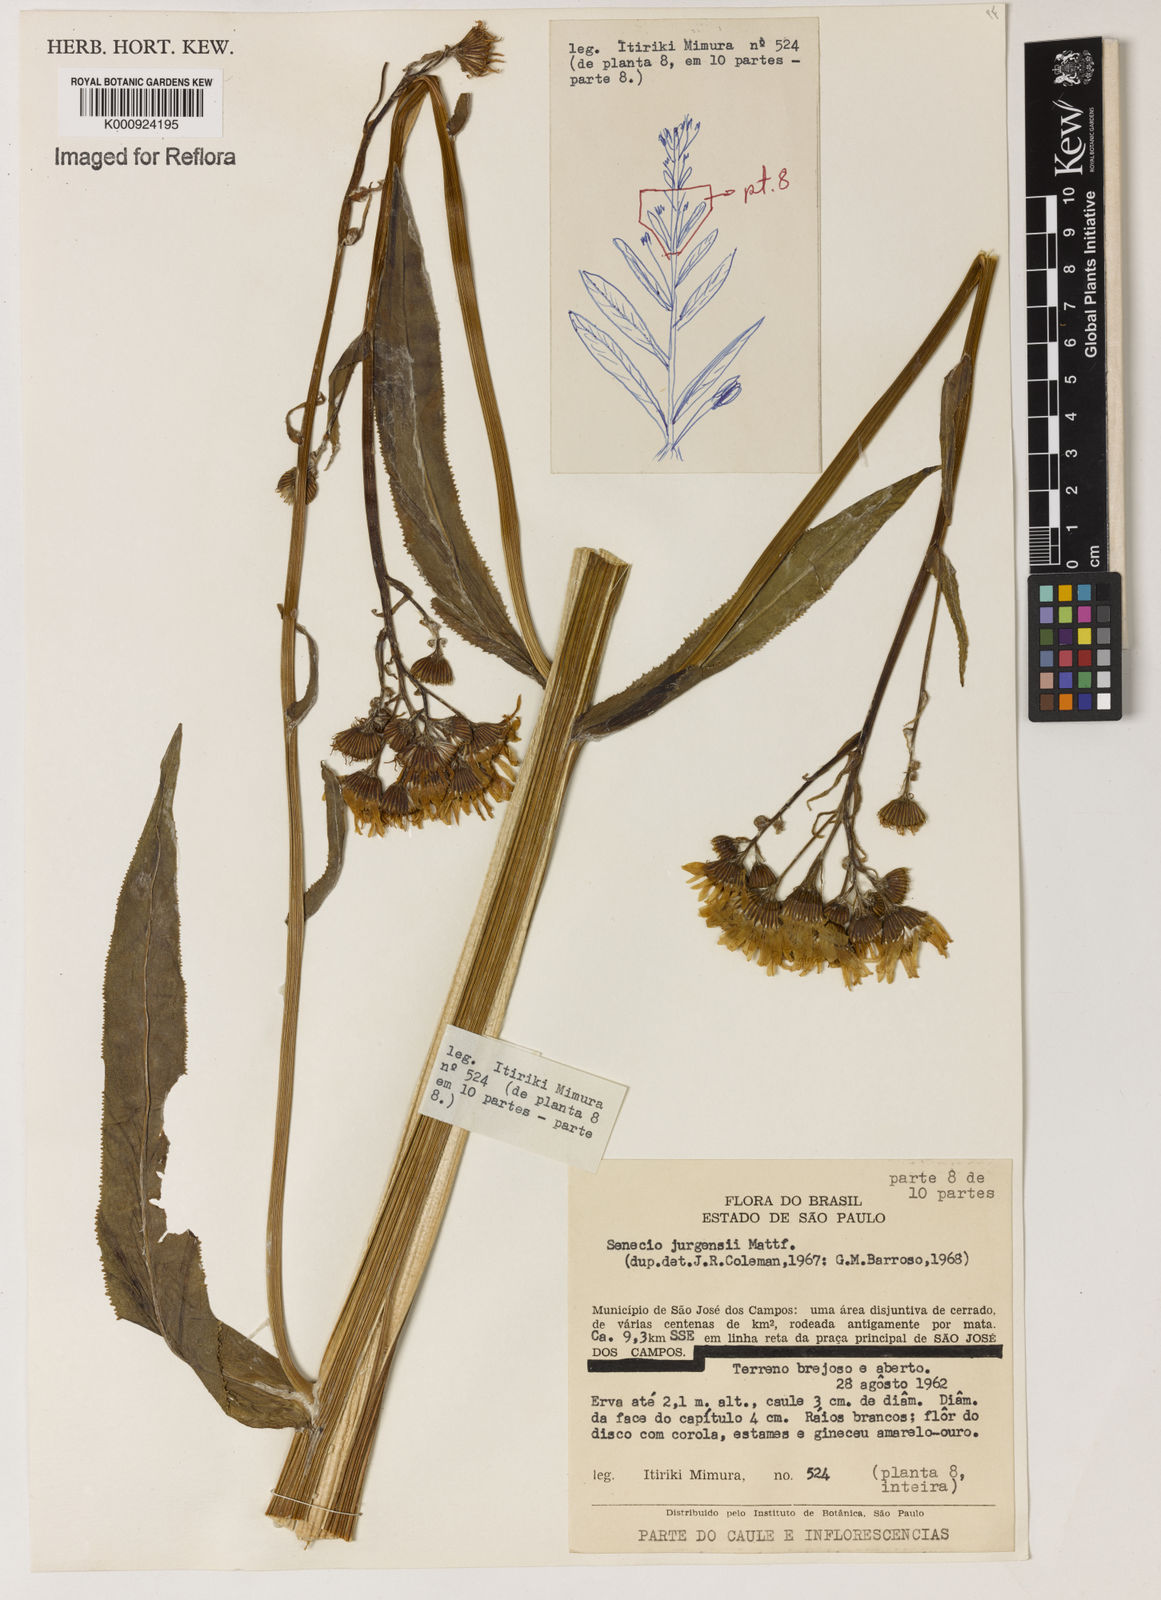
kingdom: Plantae
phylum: Tracheophyta
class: Magnoliopsida
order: Asterales
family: Asteraceae
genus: Senecio
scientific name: Senecio juergensii
